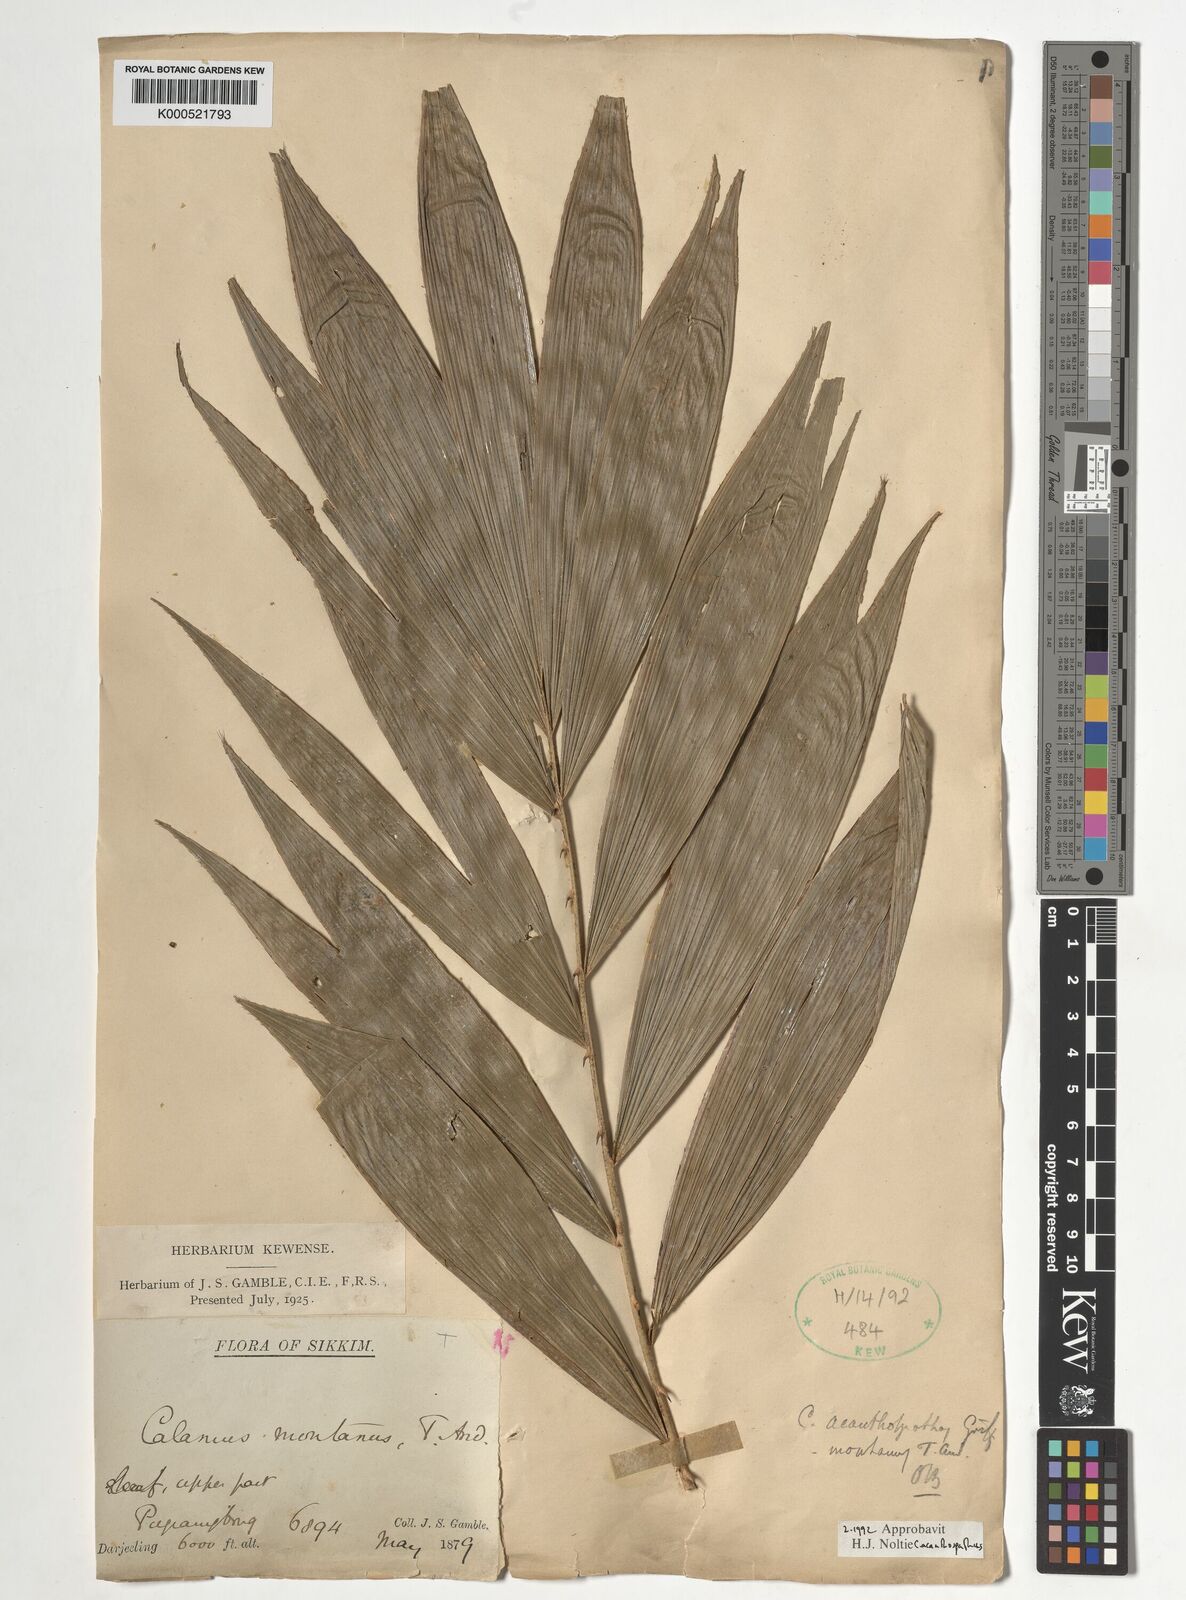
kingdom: Plantae
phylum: Tracheophyta
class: Liliopsida
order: Arecales
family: Arecaceae
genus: Calamus
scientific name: Calamus acanthospathus
